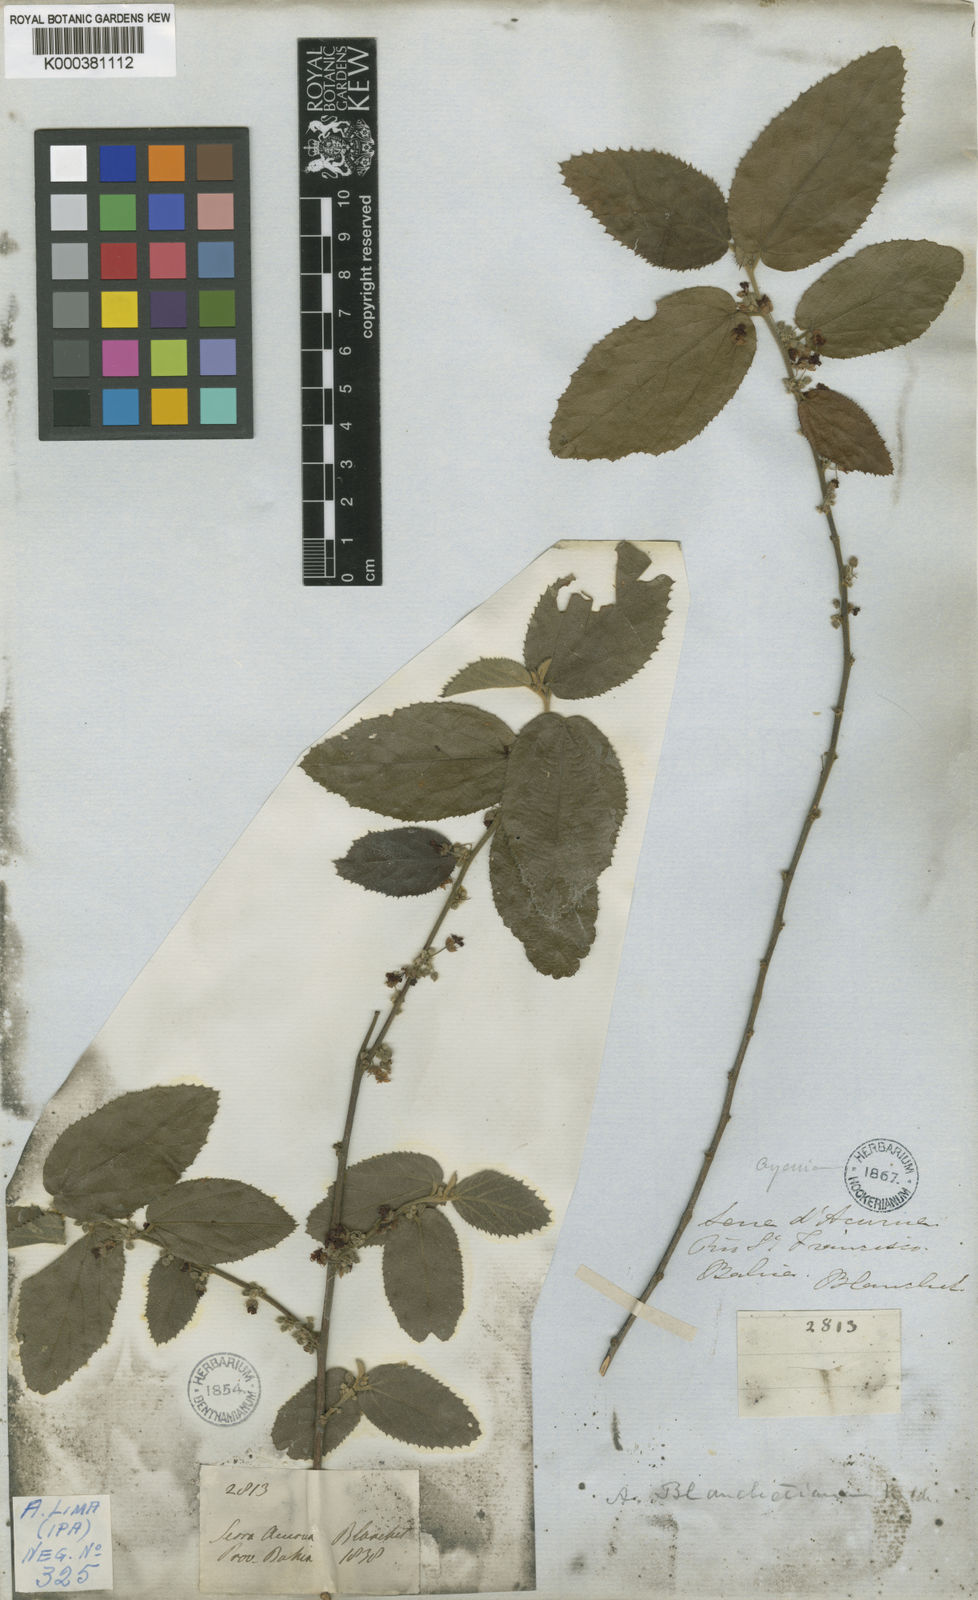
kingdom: Plantae
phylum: Tracheophyta
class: Magnoliopsida
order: Malvales
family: Malvaceae
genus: Ayenia
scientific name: Ayenia blanchetiana
